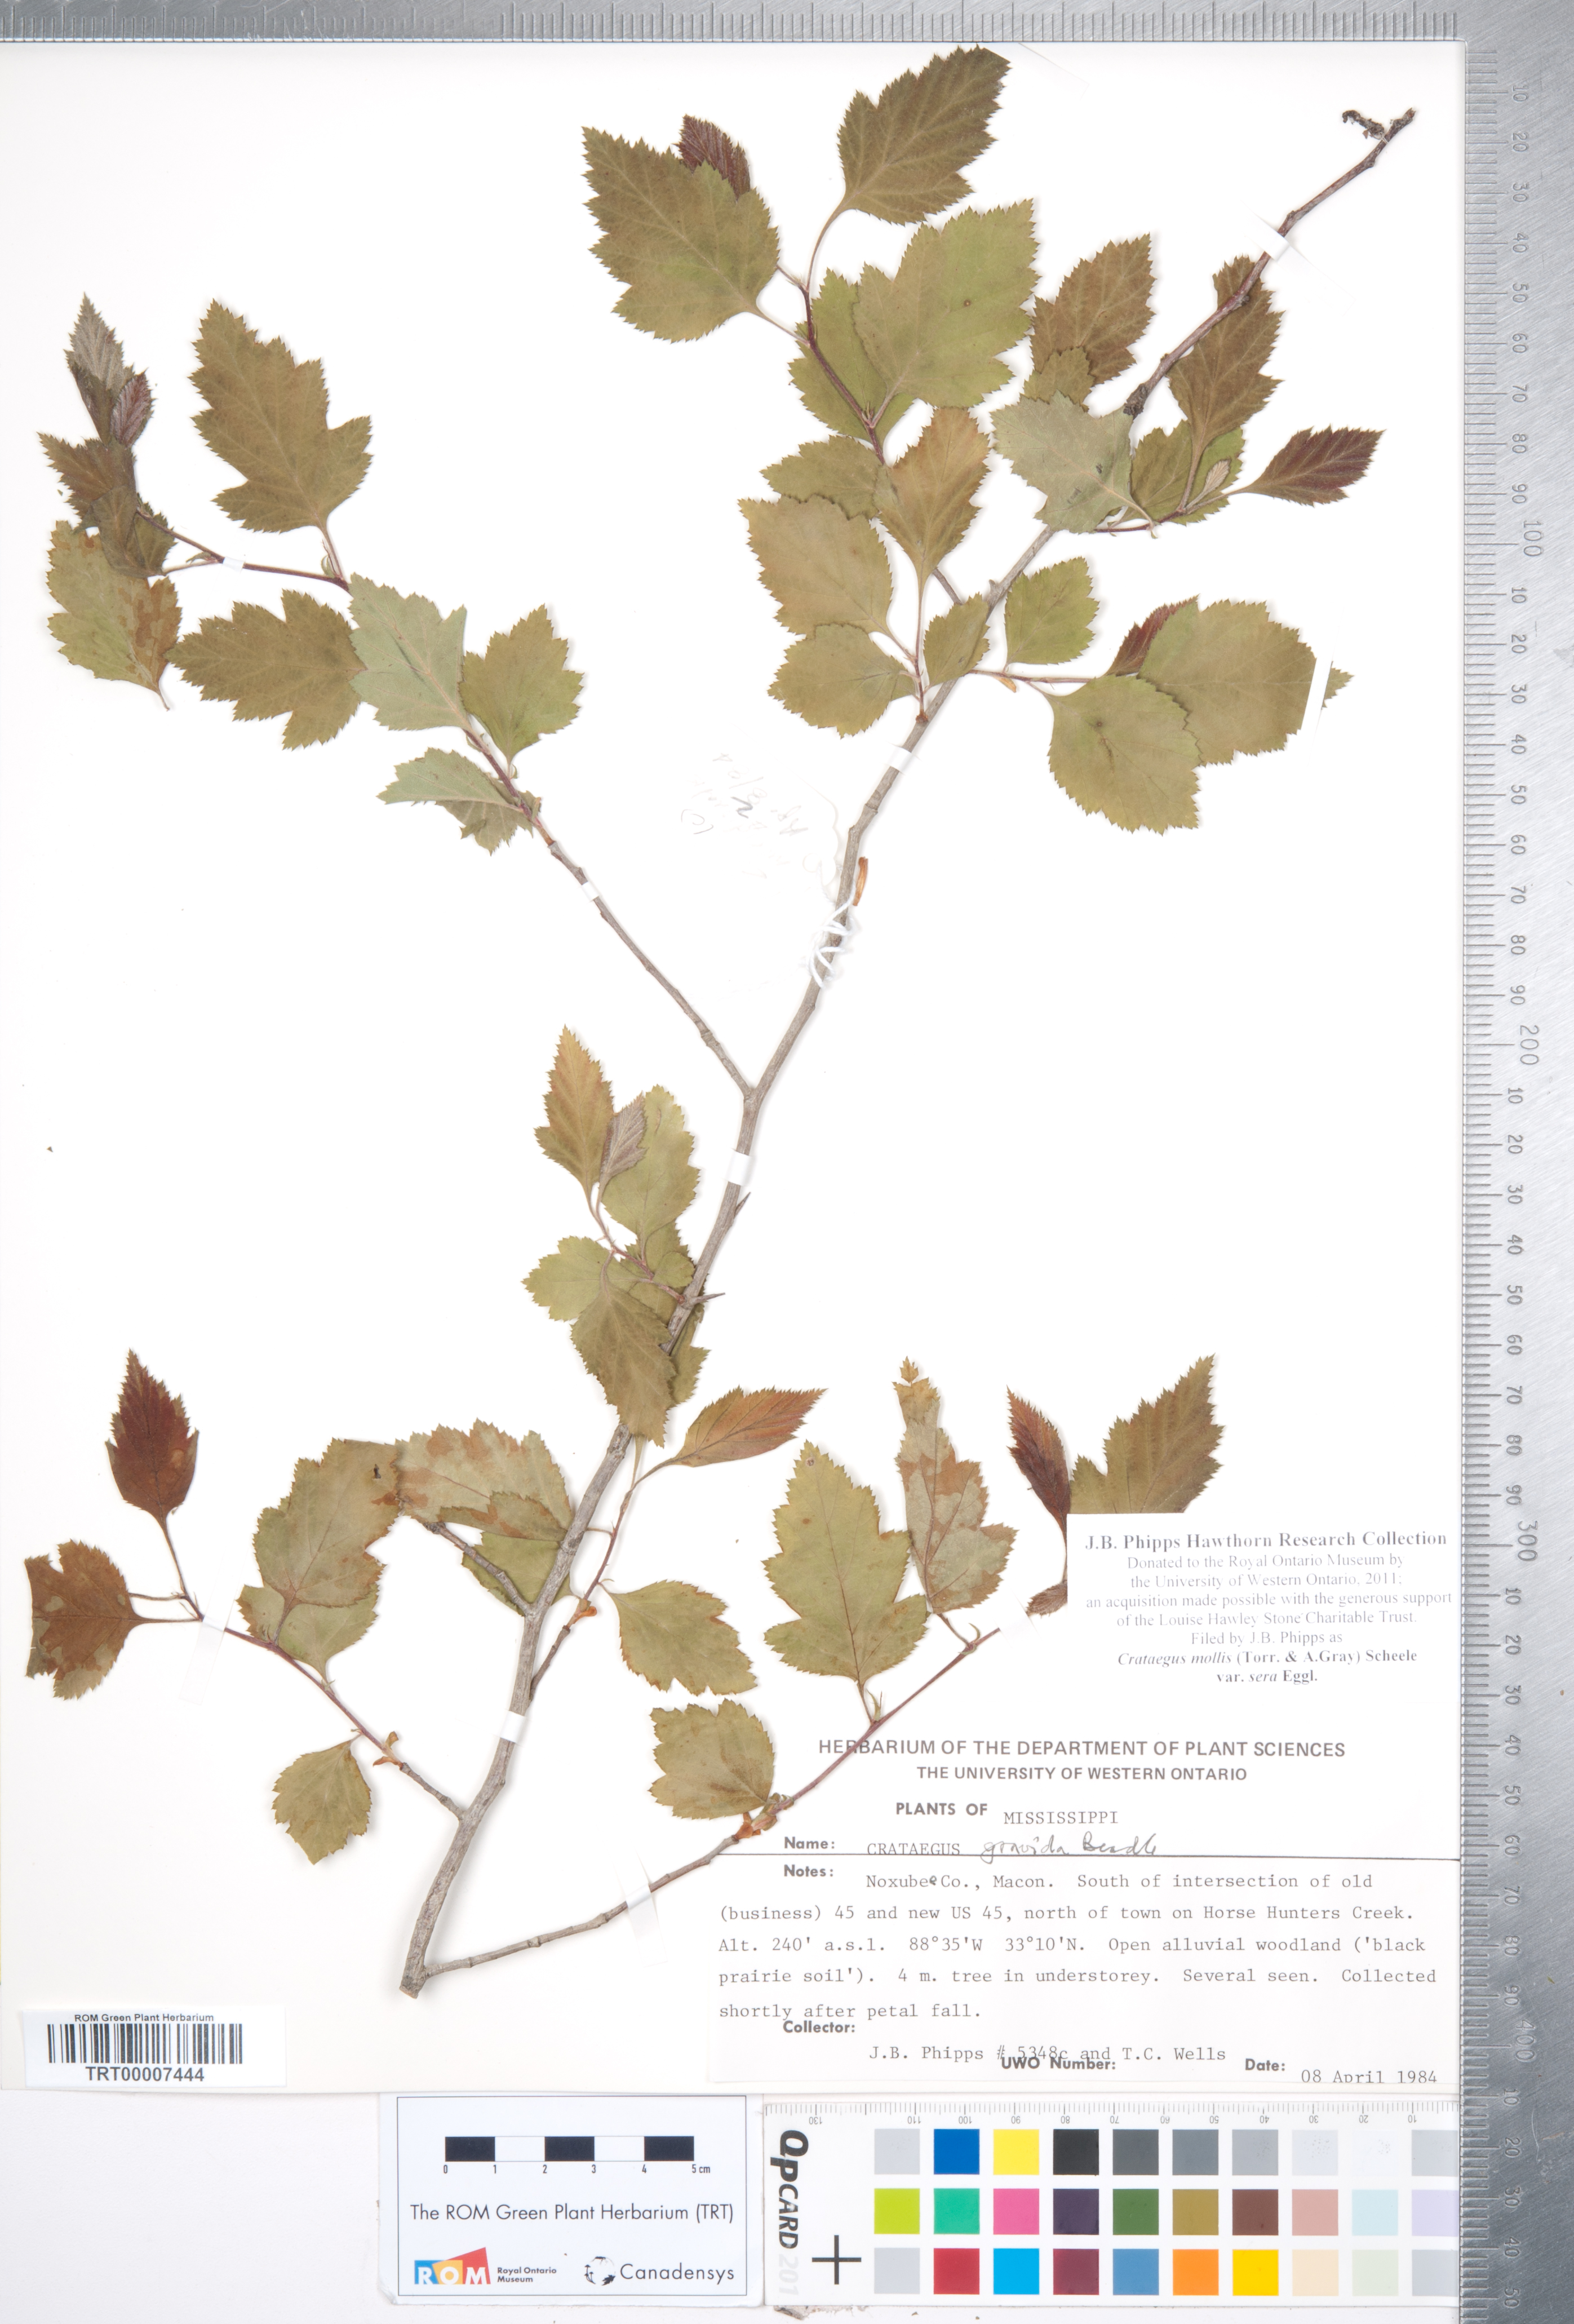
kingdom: Plantae
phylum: Tracheophyta
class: Magnoliopsida
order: Rosales
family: Rosaceae
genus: Crataegus
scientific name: Crataegus mollis
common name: Downy hawthorn
